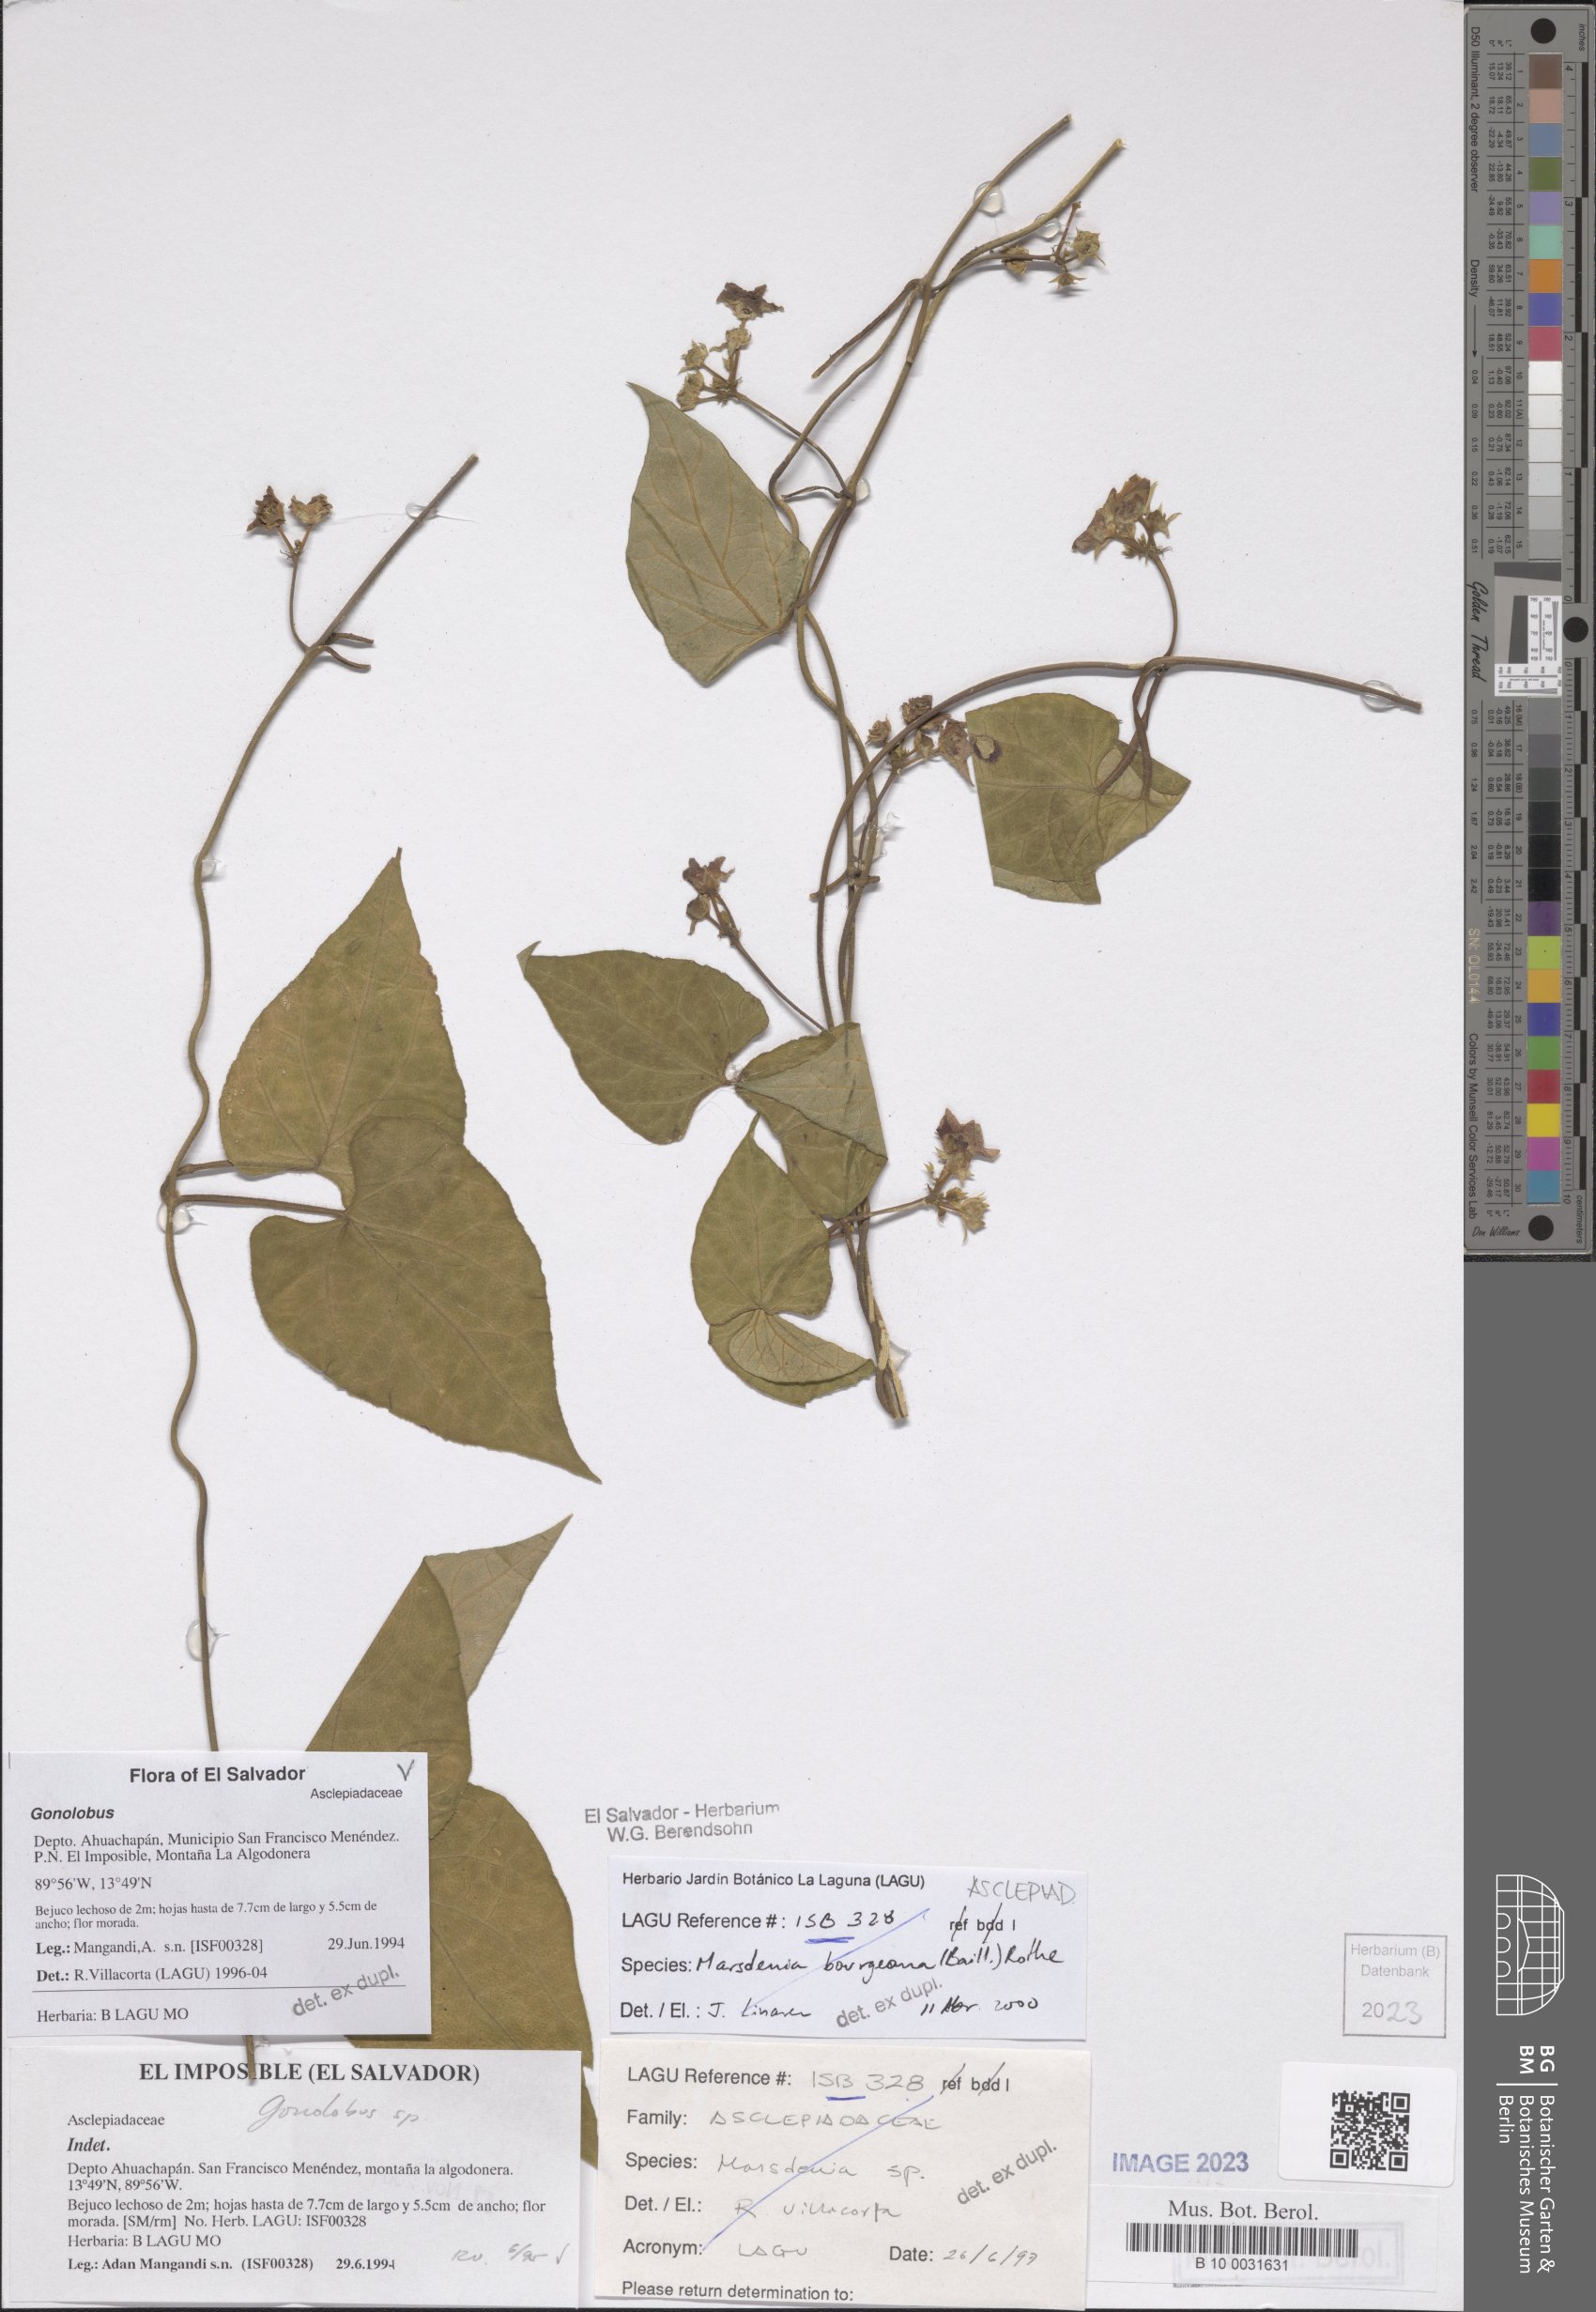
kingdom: Plantae
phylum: Tracheophyta
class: Magnoliopsida
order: Gentianales
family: Apocynaceae
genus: Ruehssia
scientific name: Ruehssia gilgiana
